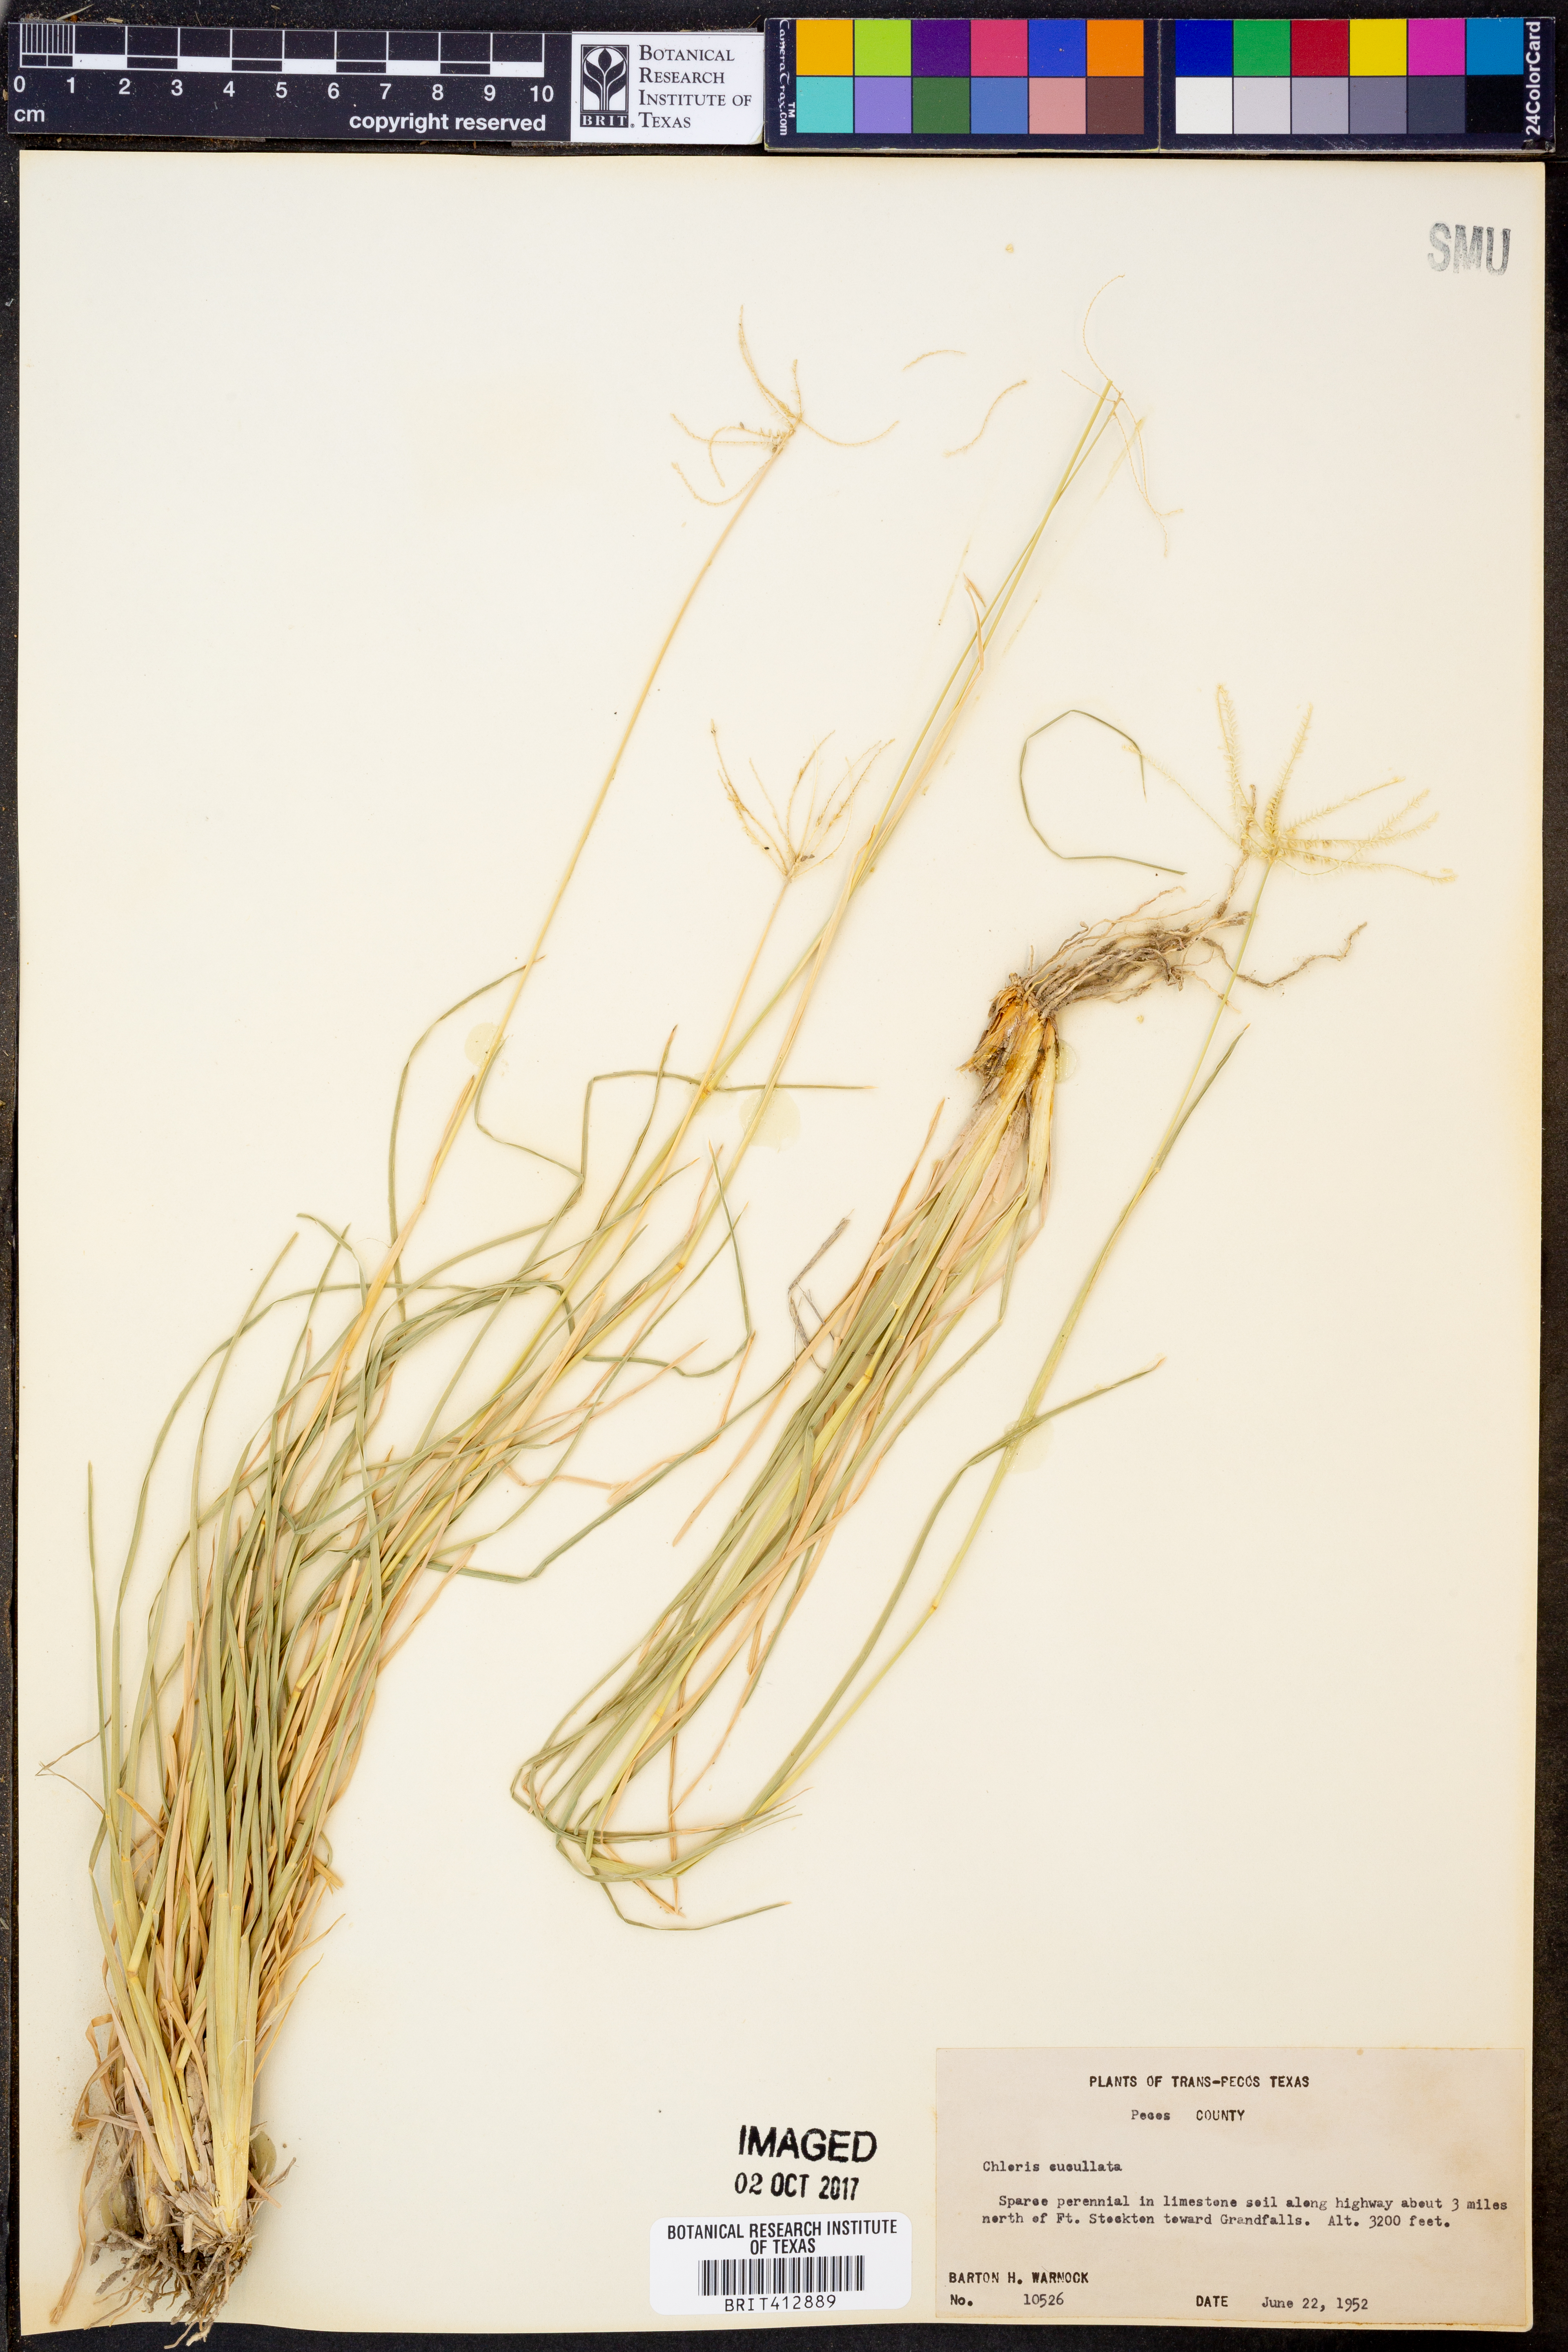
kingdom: Plantae
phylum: Tracheophyta
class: Liliopsida
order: Poales
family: Poaceae
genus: Chloris
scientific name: Chloris cucullata
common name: Hooded windmill grass
